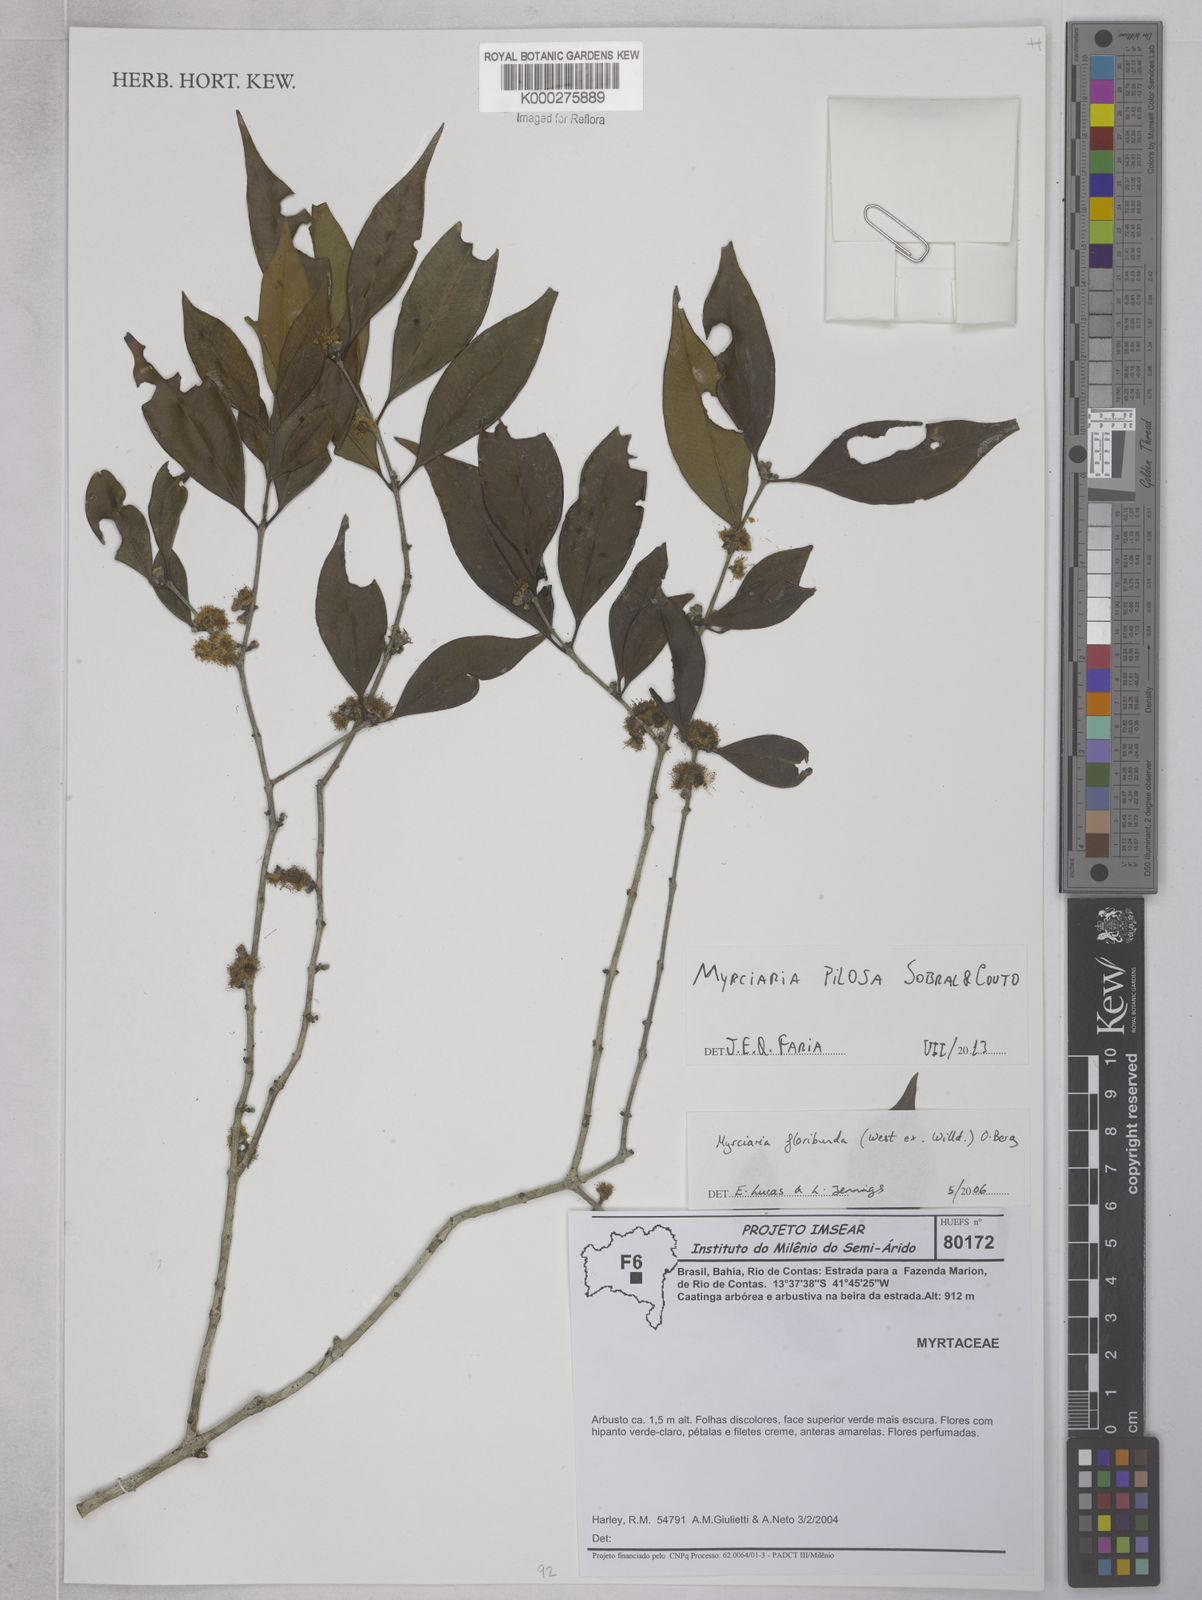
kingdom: Plantae
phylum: Tracheophyta
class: Magnoliopsida
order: Myrtales
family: Myrtaceae
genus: Myrciaria
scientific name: Myrciaria pilosa
